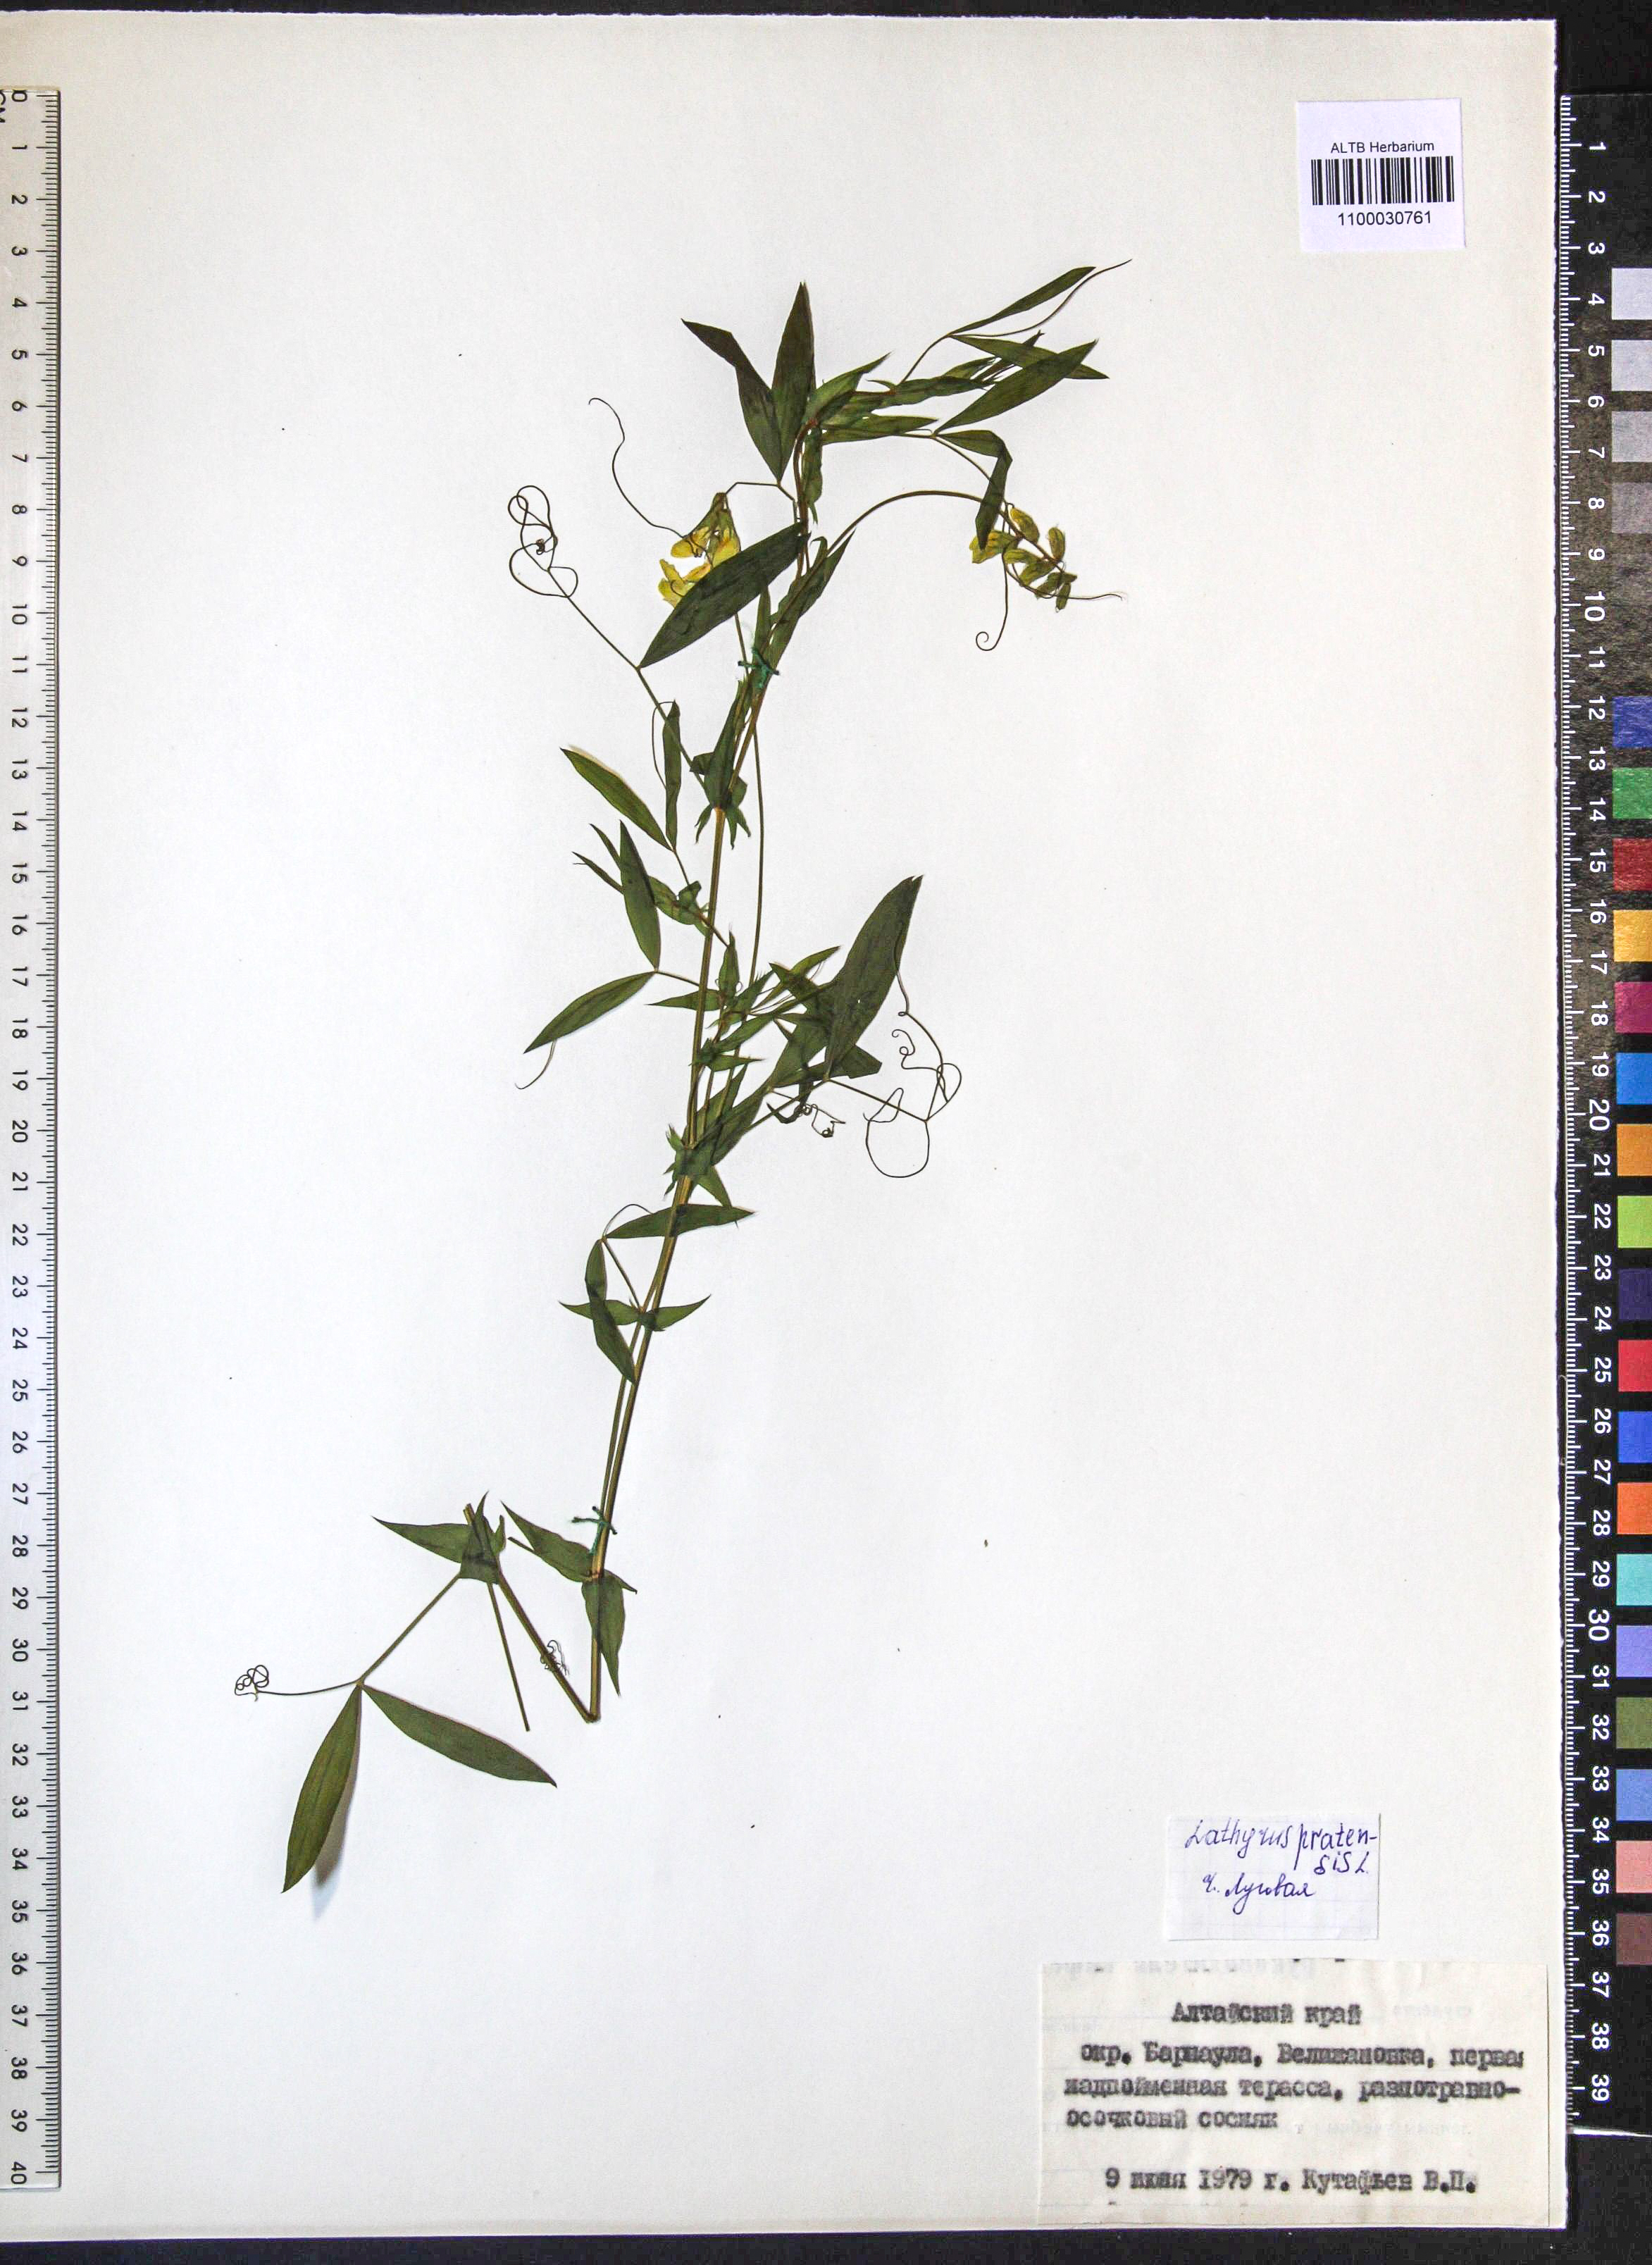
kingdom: Plantae
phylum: Tracheophyta
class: Magnoliopsida
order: Fabales
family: Fabaceae
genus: Lathyrus
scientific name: Lathyrus pratensis
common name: Meadow vetchling
